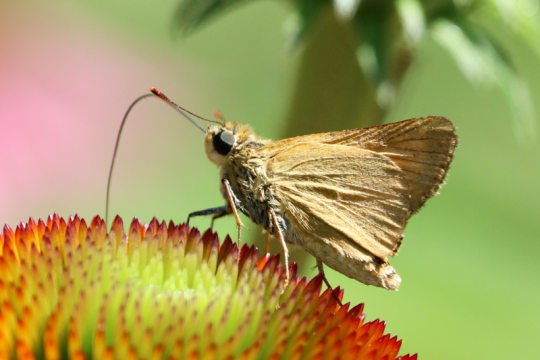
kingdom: Animalia
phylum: Arthropoda
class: Insecta
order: Lepidoptera
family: Hesperiidae
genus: Atrytone
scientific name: Atrytone delaware
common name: Delaware Skipper
